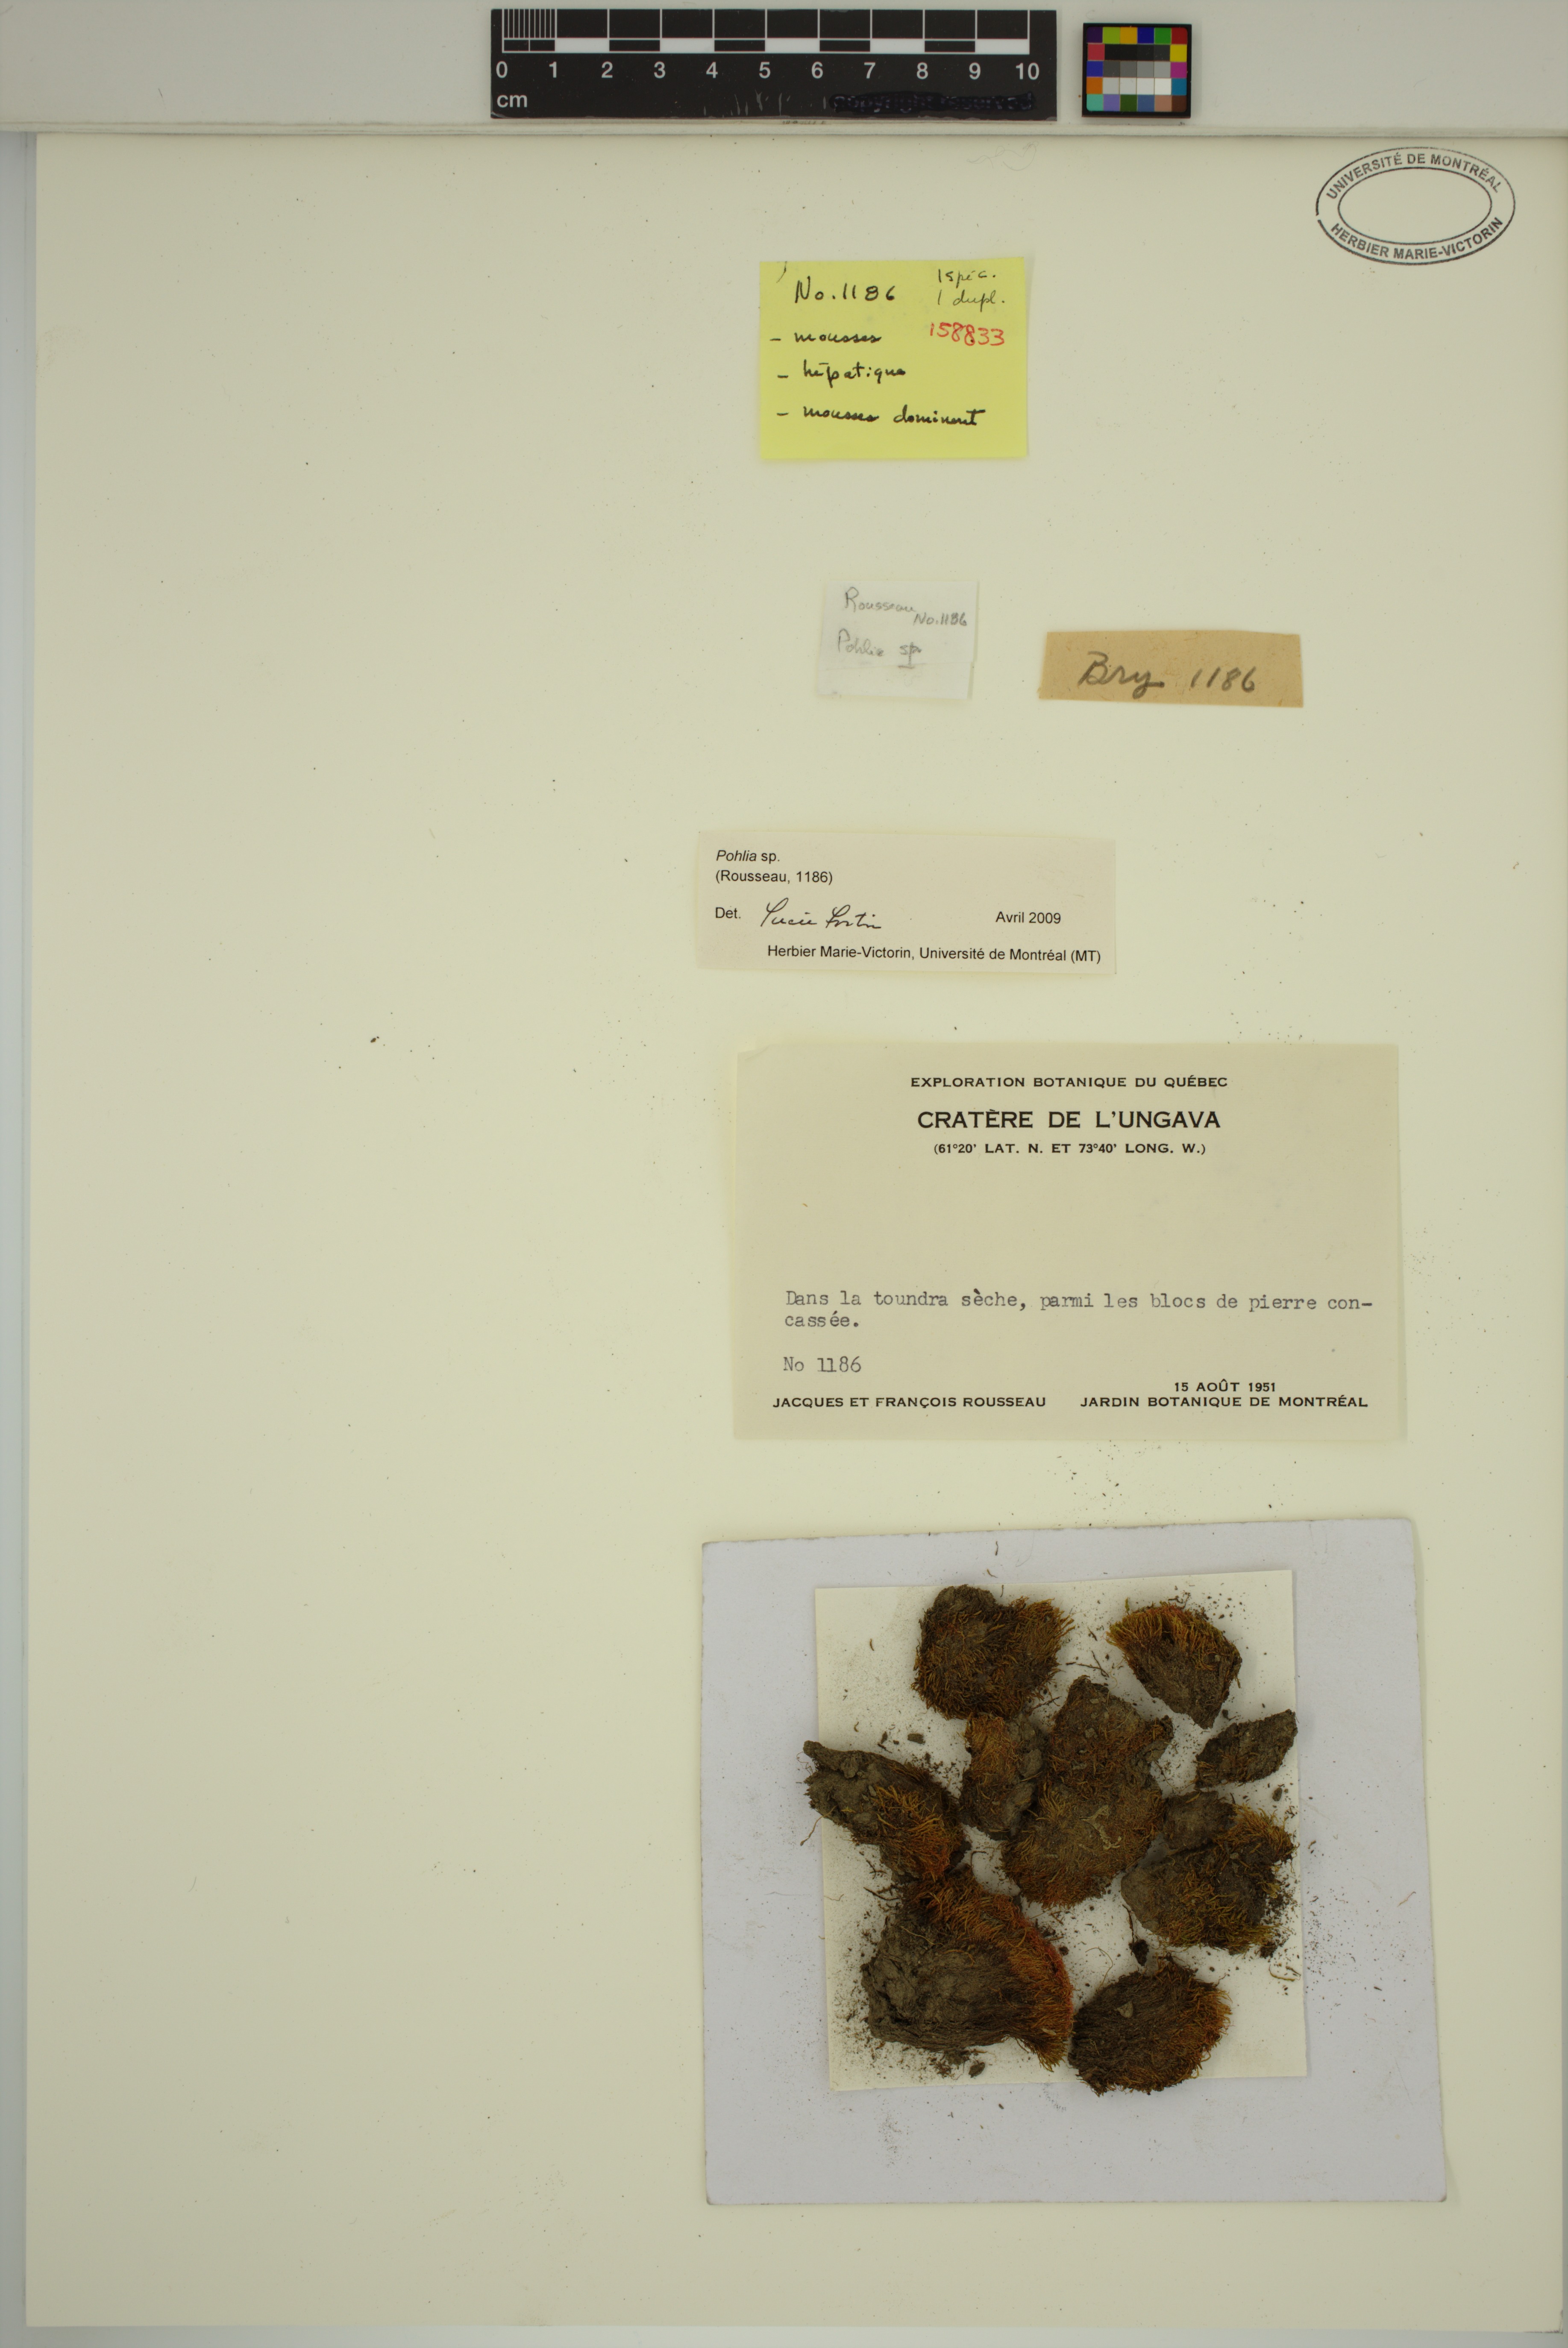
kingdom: Plantae
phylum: Bryophyta
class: Bryopsida
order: Bryales
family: Mniaceae
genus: Pohlia
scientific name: Pohlia
